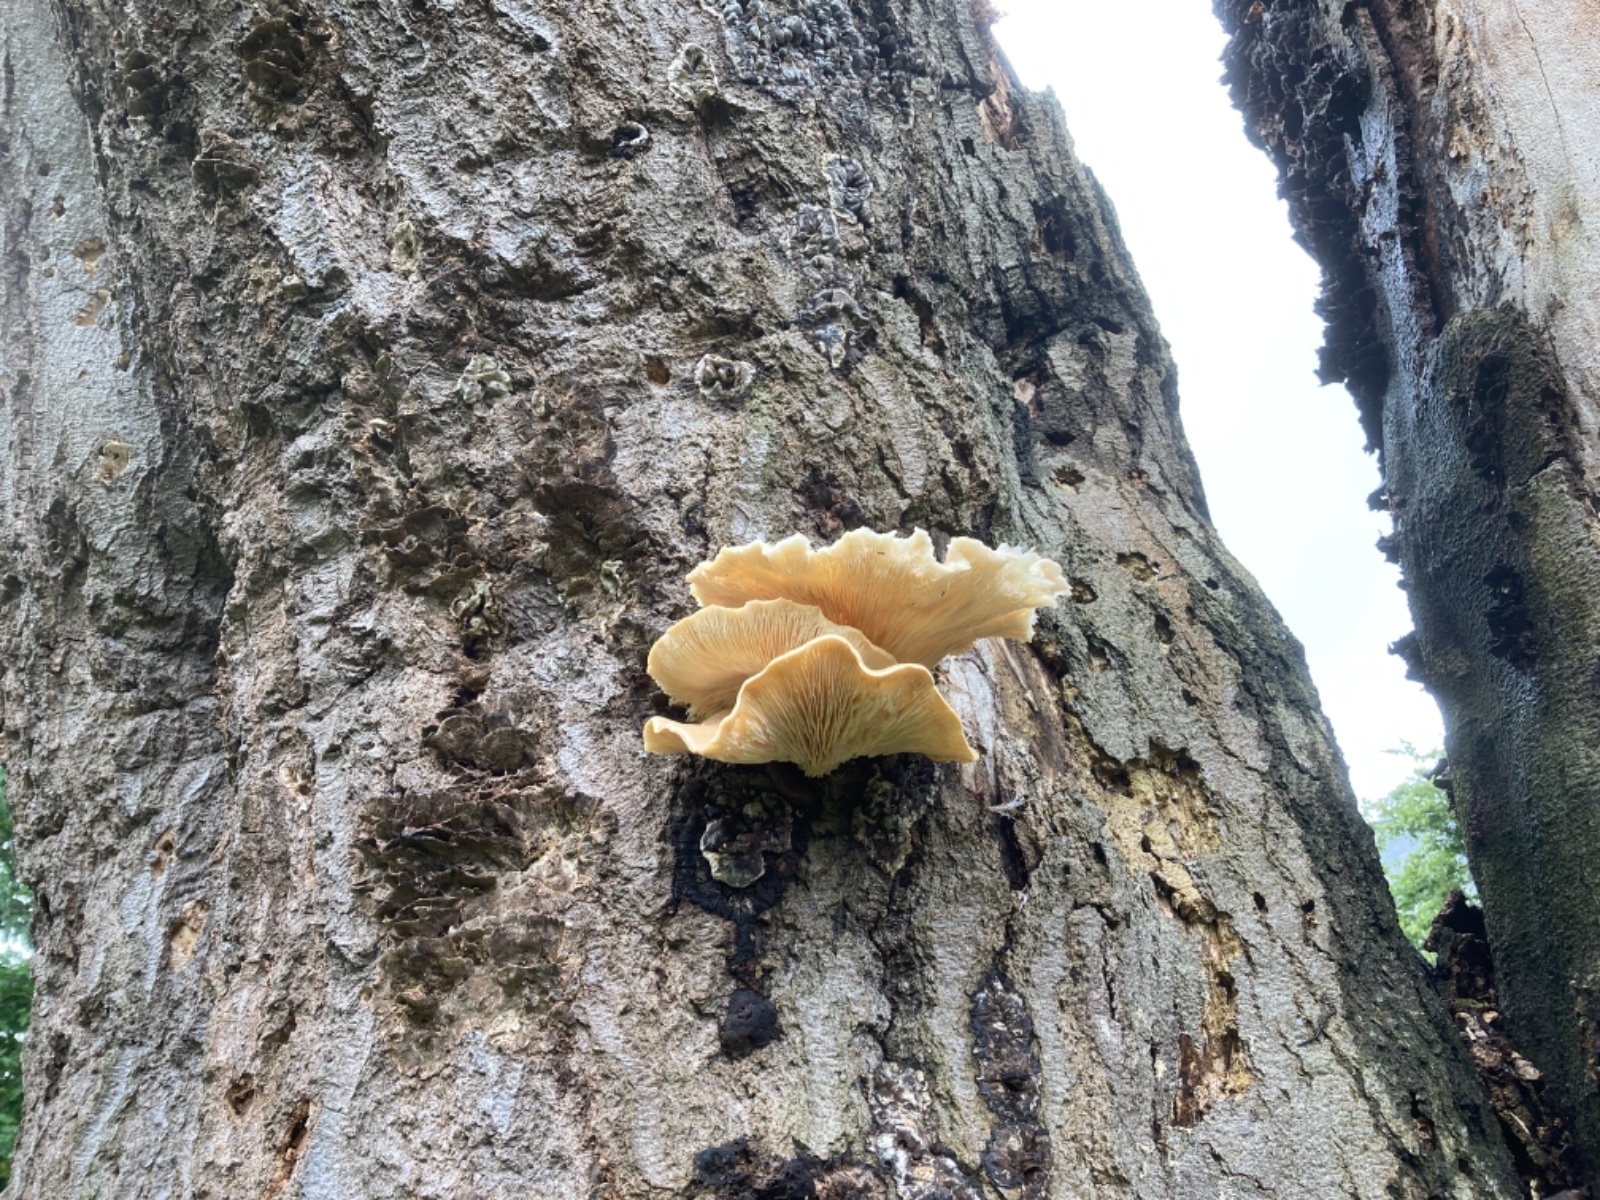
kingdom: Fungi
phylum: Basidiomycota
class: Agaricomycetes
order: Agaricales
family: Pleurotaceae
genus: Pleurotus
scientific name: Pleurotus pulmonarius
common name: sommer-østershat
